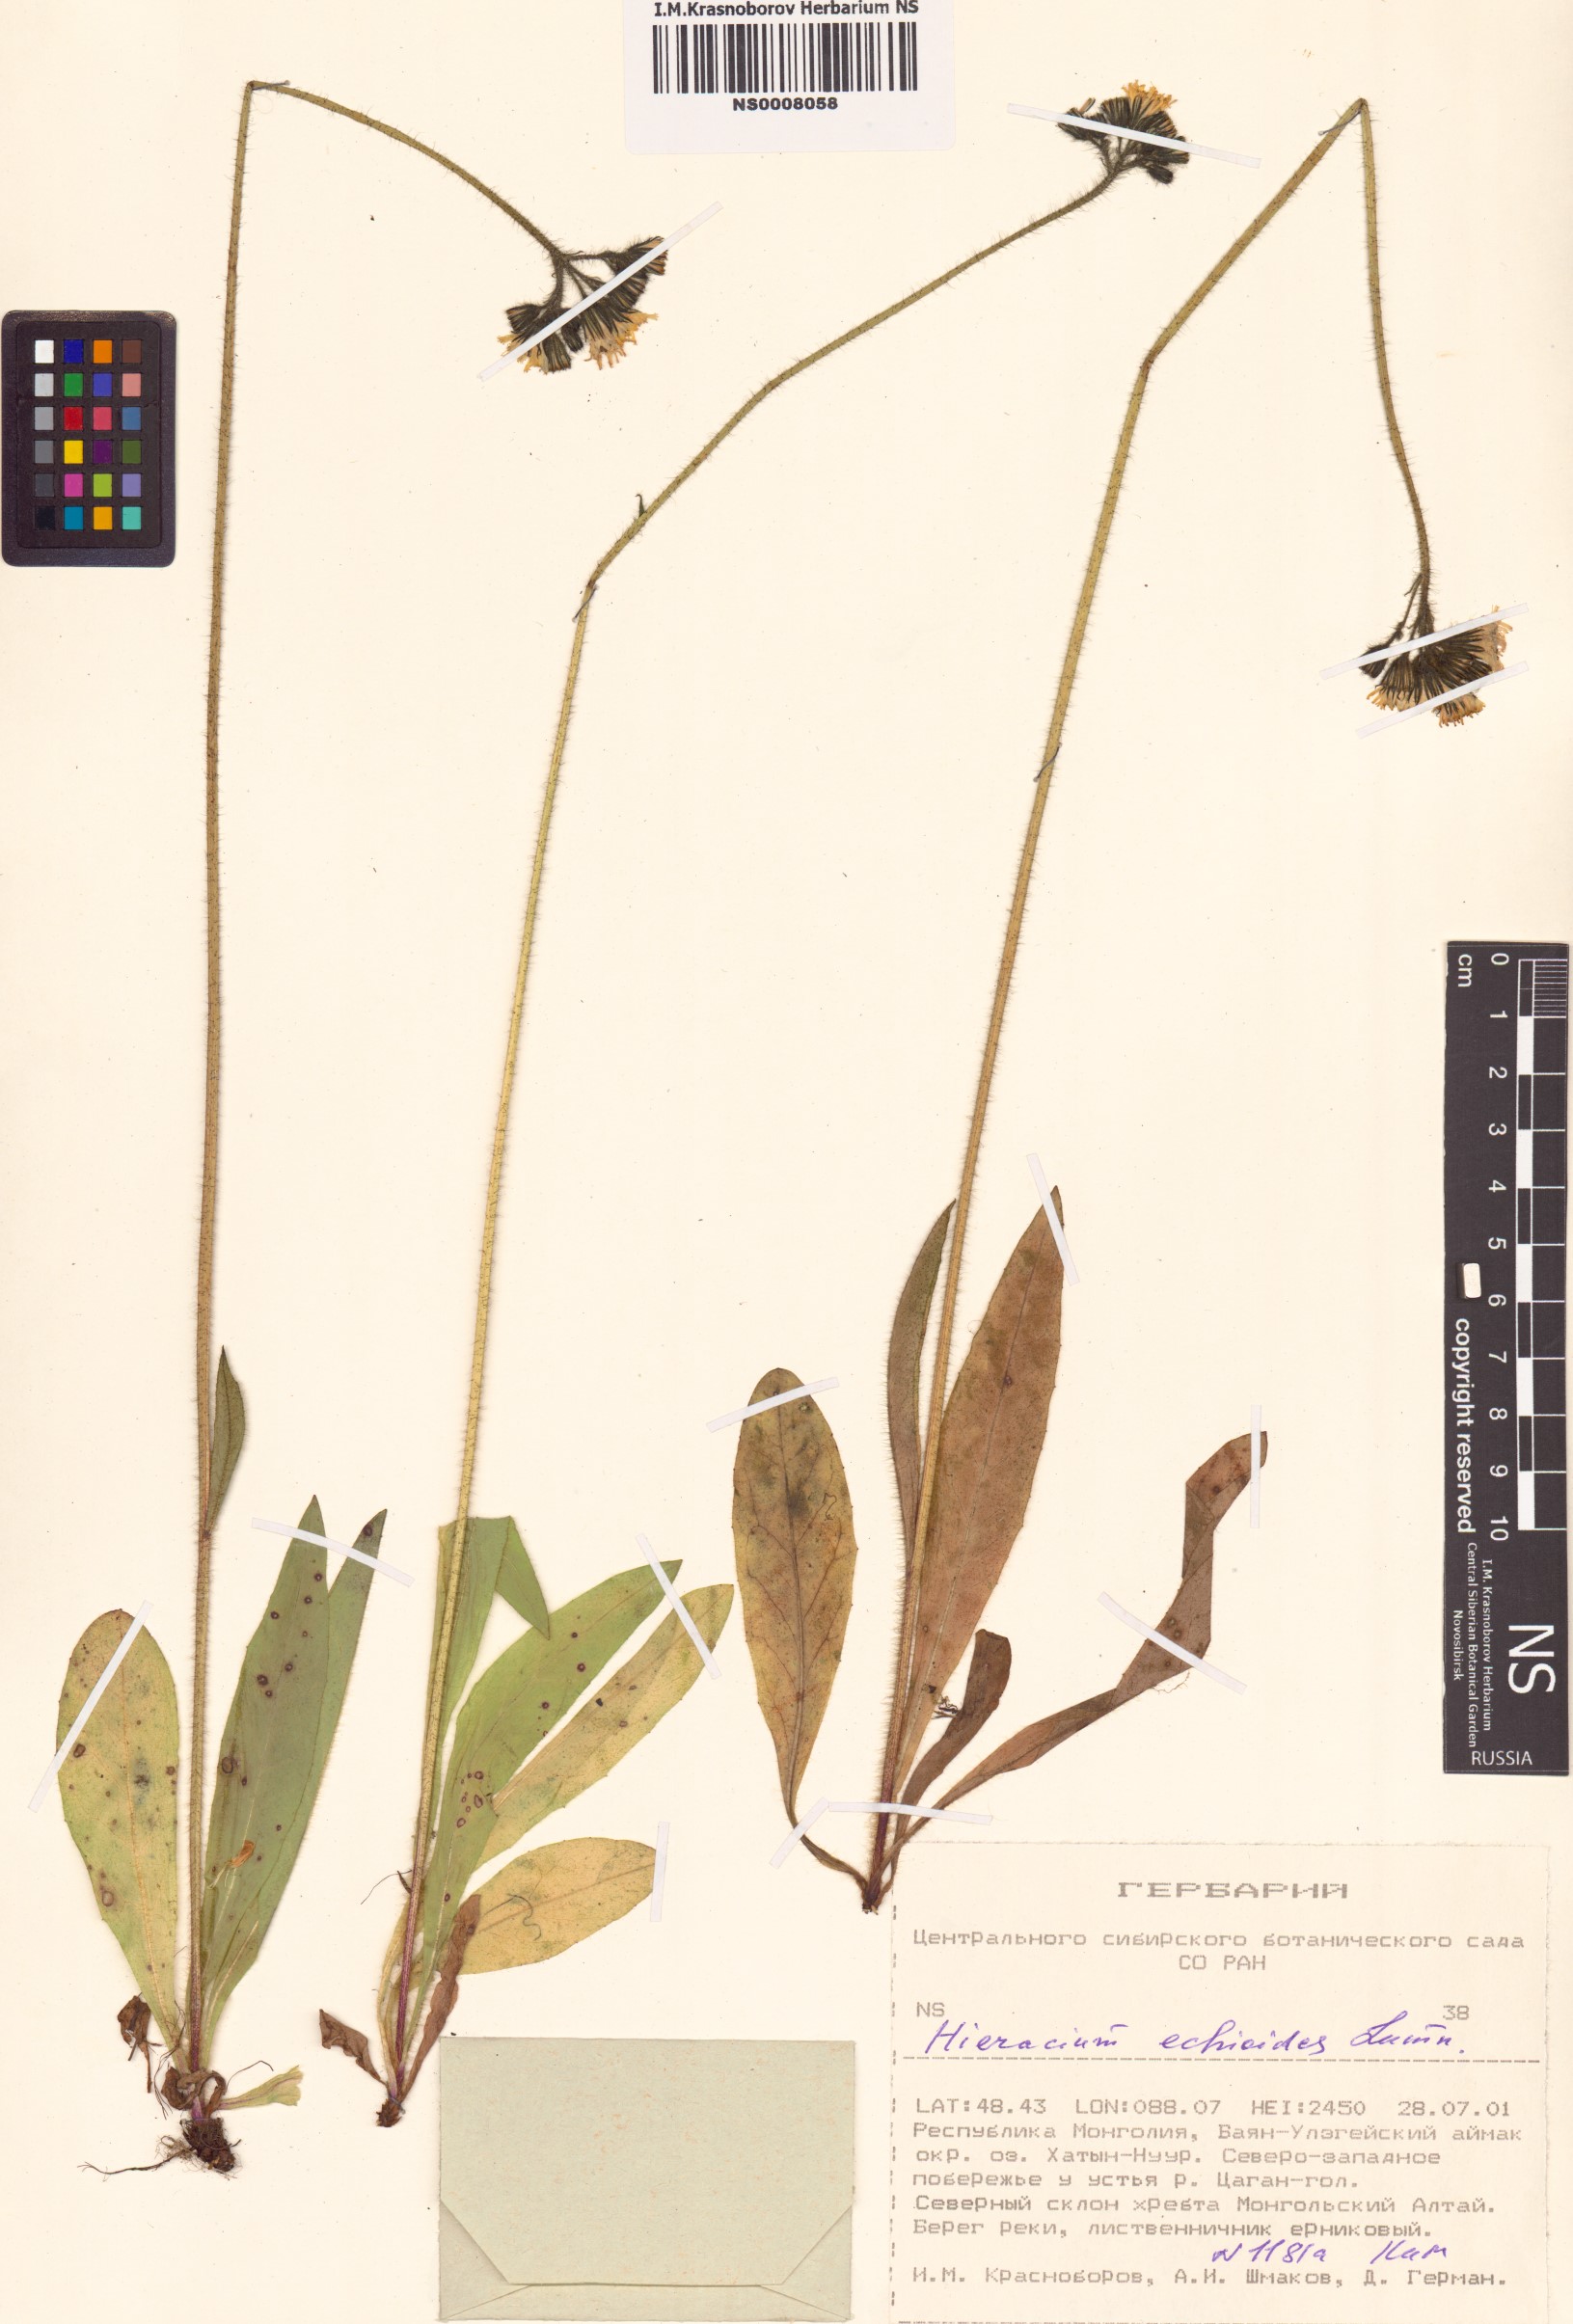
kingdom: Plantae
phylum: Tracheophyta
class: Magnoliopsida
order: Asterales
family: Asteraceae
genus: Pilosella
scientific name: Pilosella echioides
